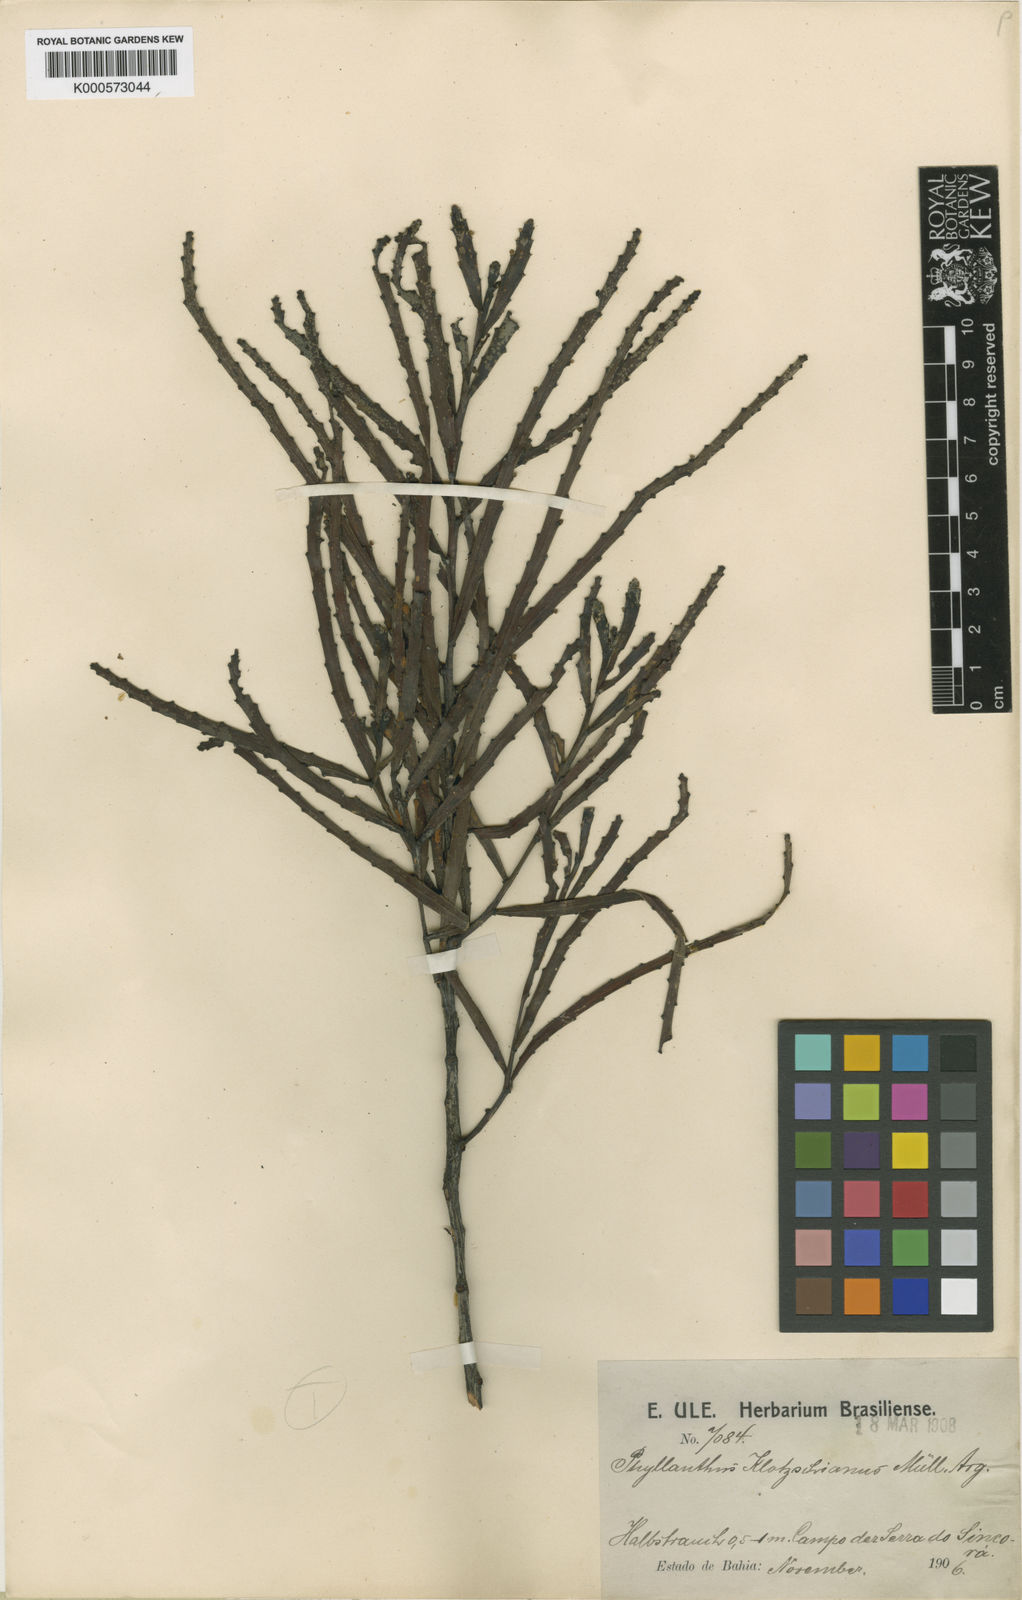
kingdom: Plantae
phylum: Tracheophyta
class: Magnoliopsida
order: Malpighiales
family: Phyllanthaceae
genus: Phyllanthus
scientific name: Phyllanthus
